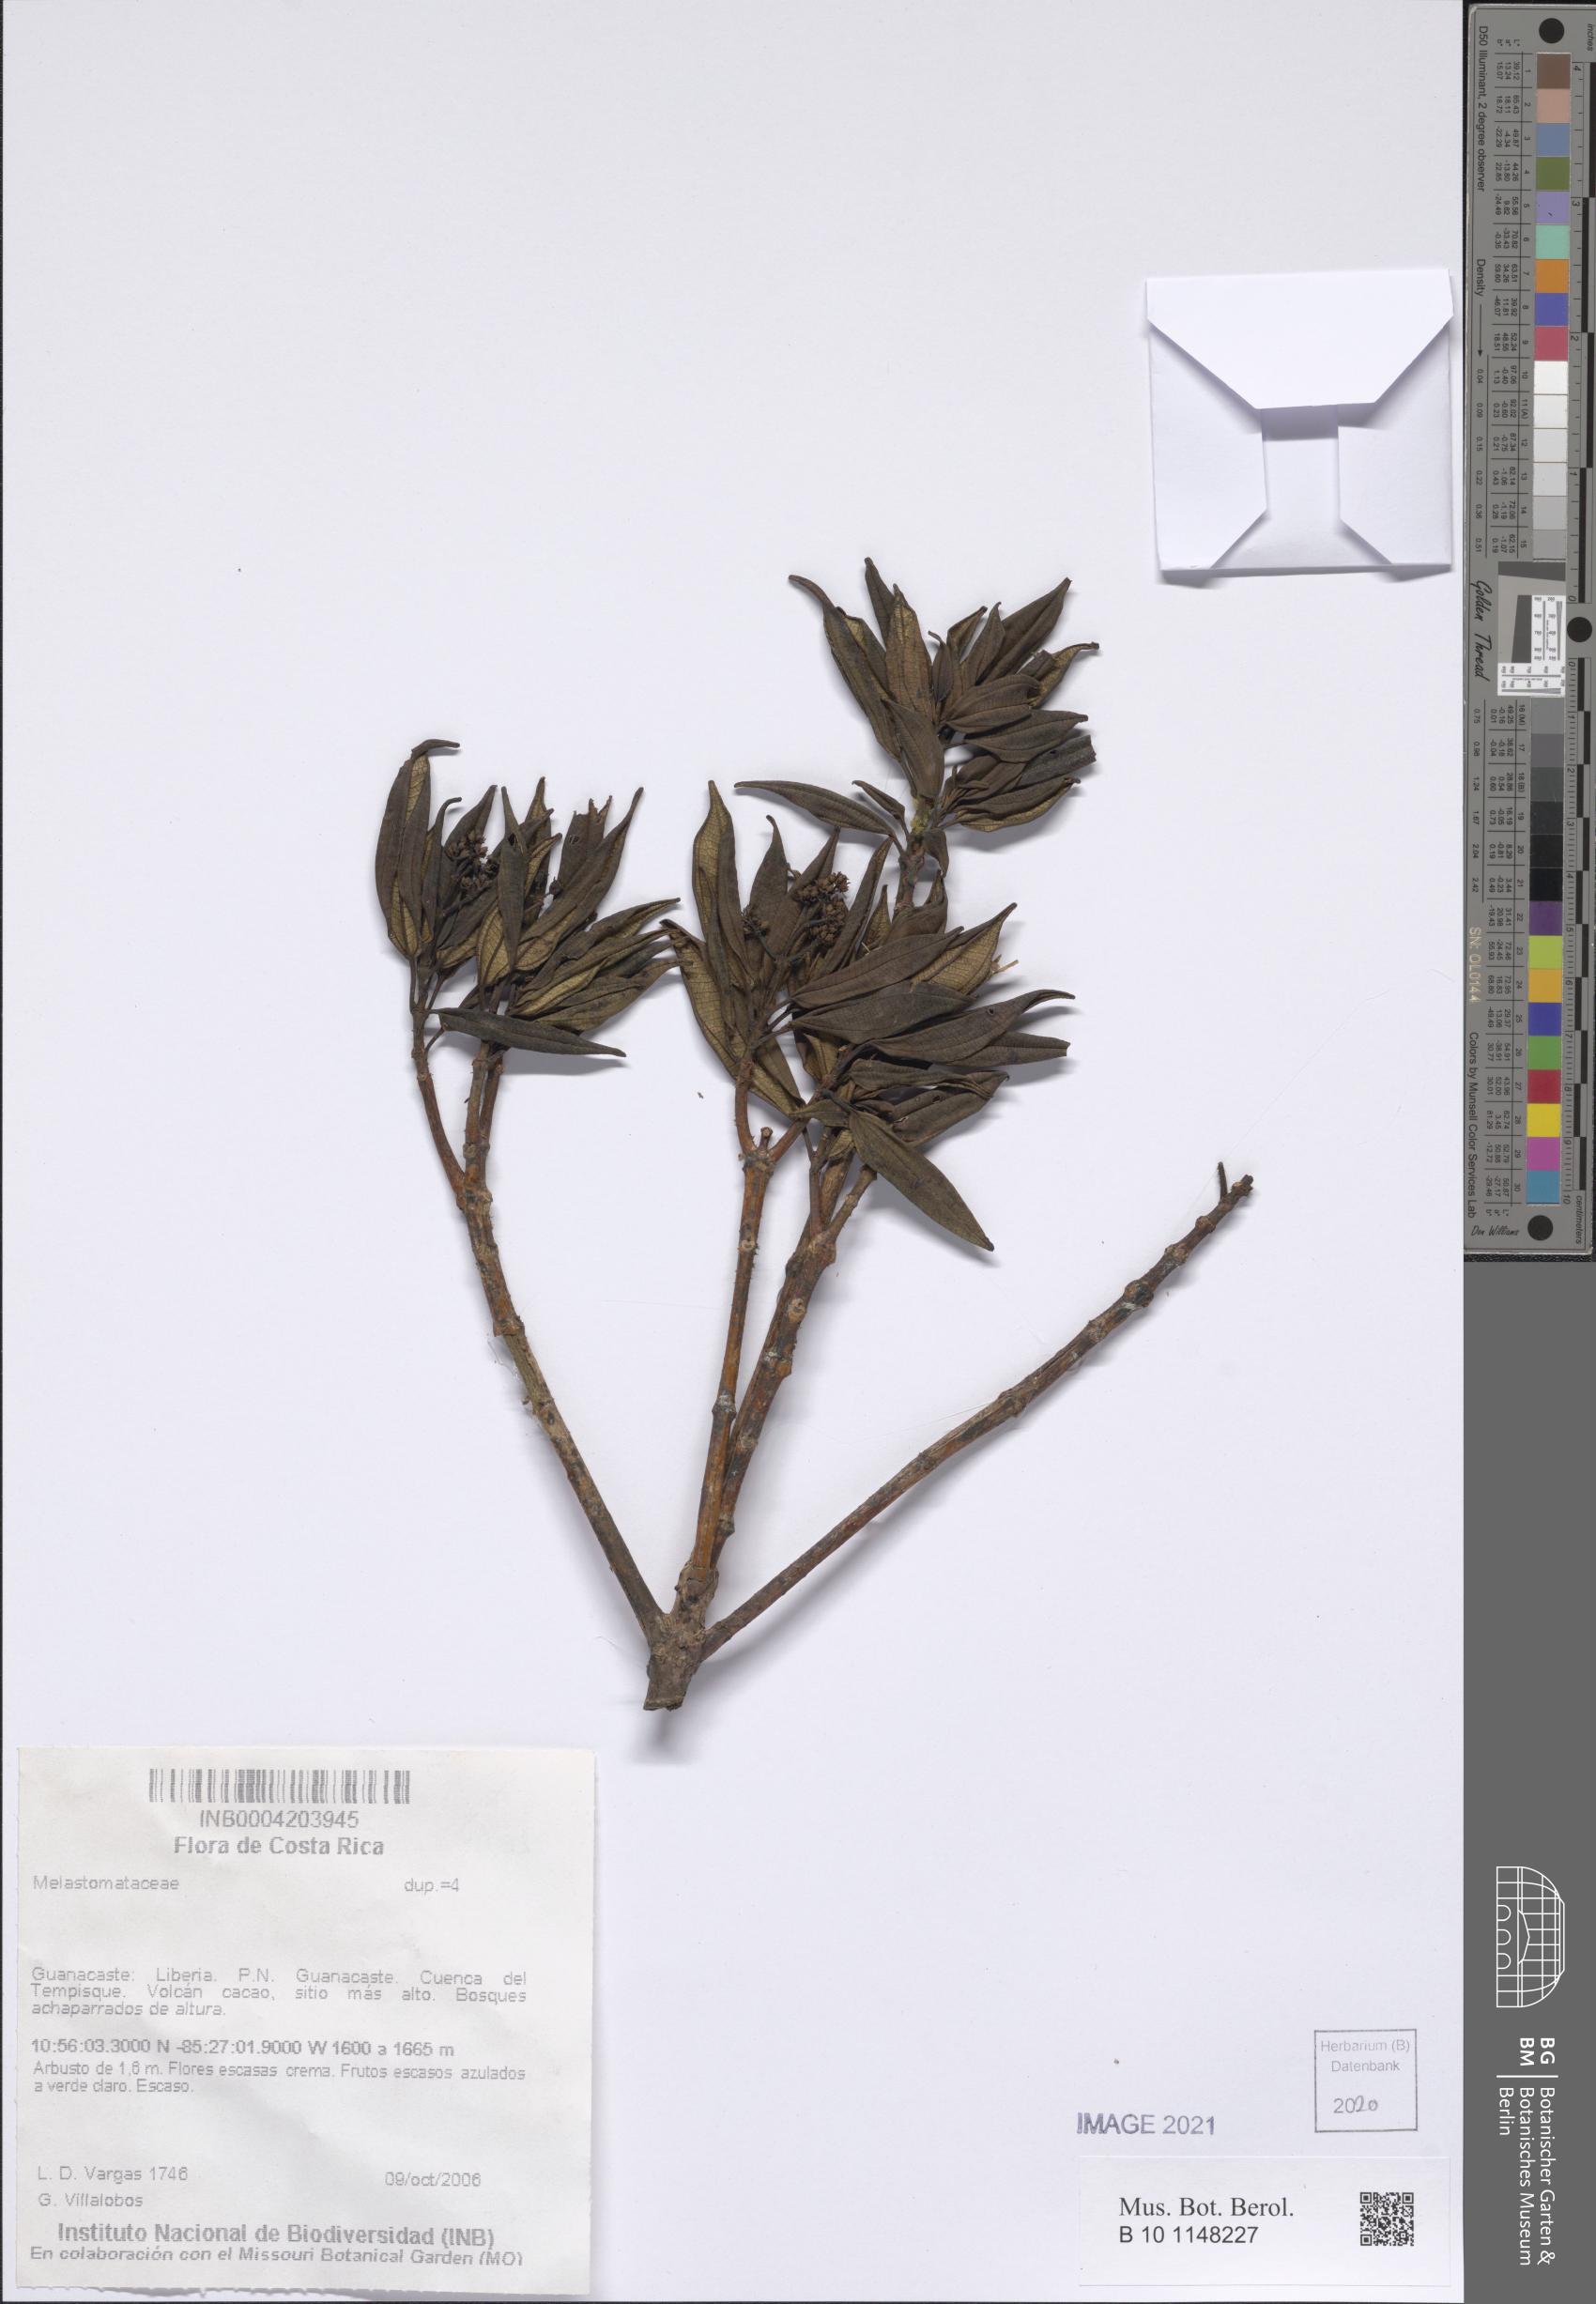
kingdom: Plantae
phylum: Tracheophyta
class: Magnoliopsida
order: Myrtales
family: Melastomataceae
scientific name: Melastomataceae
